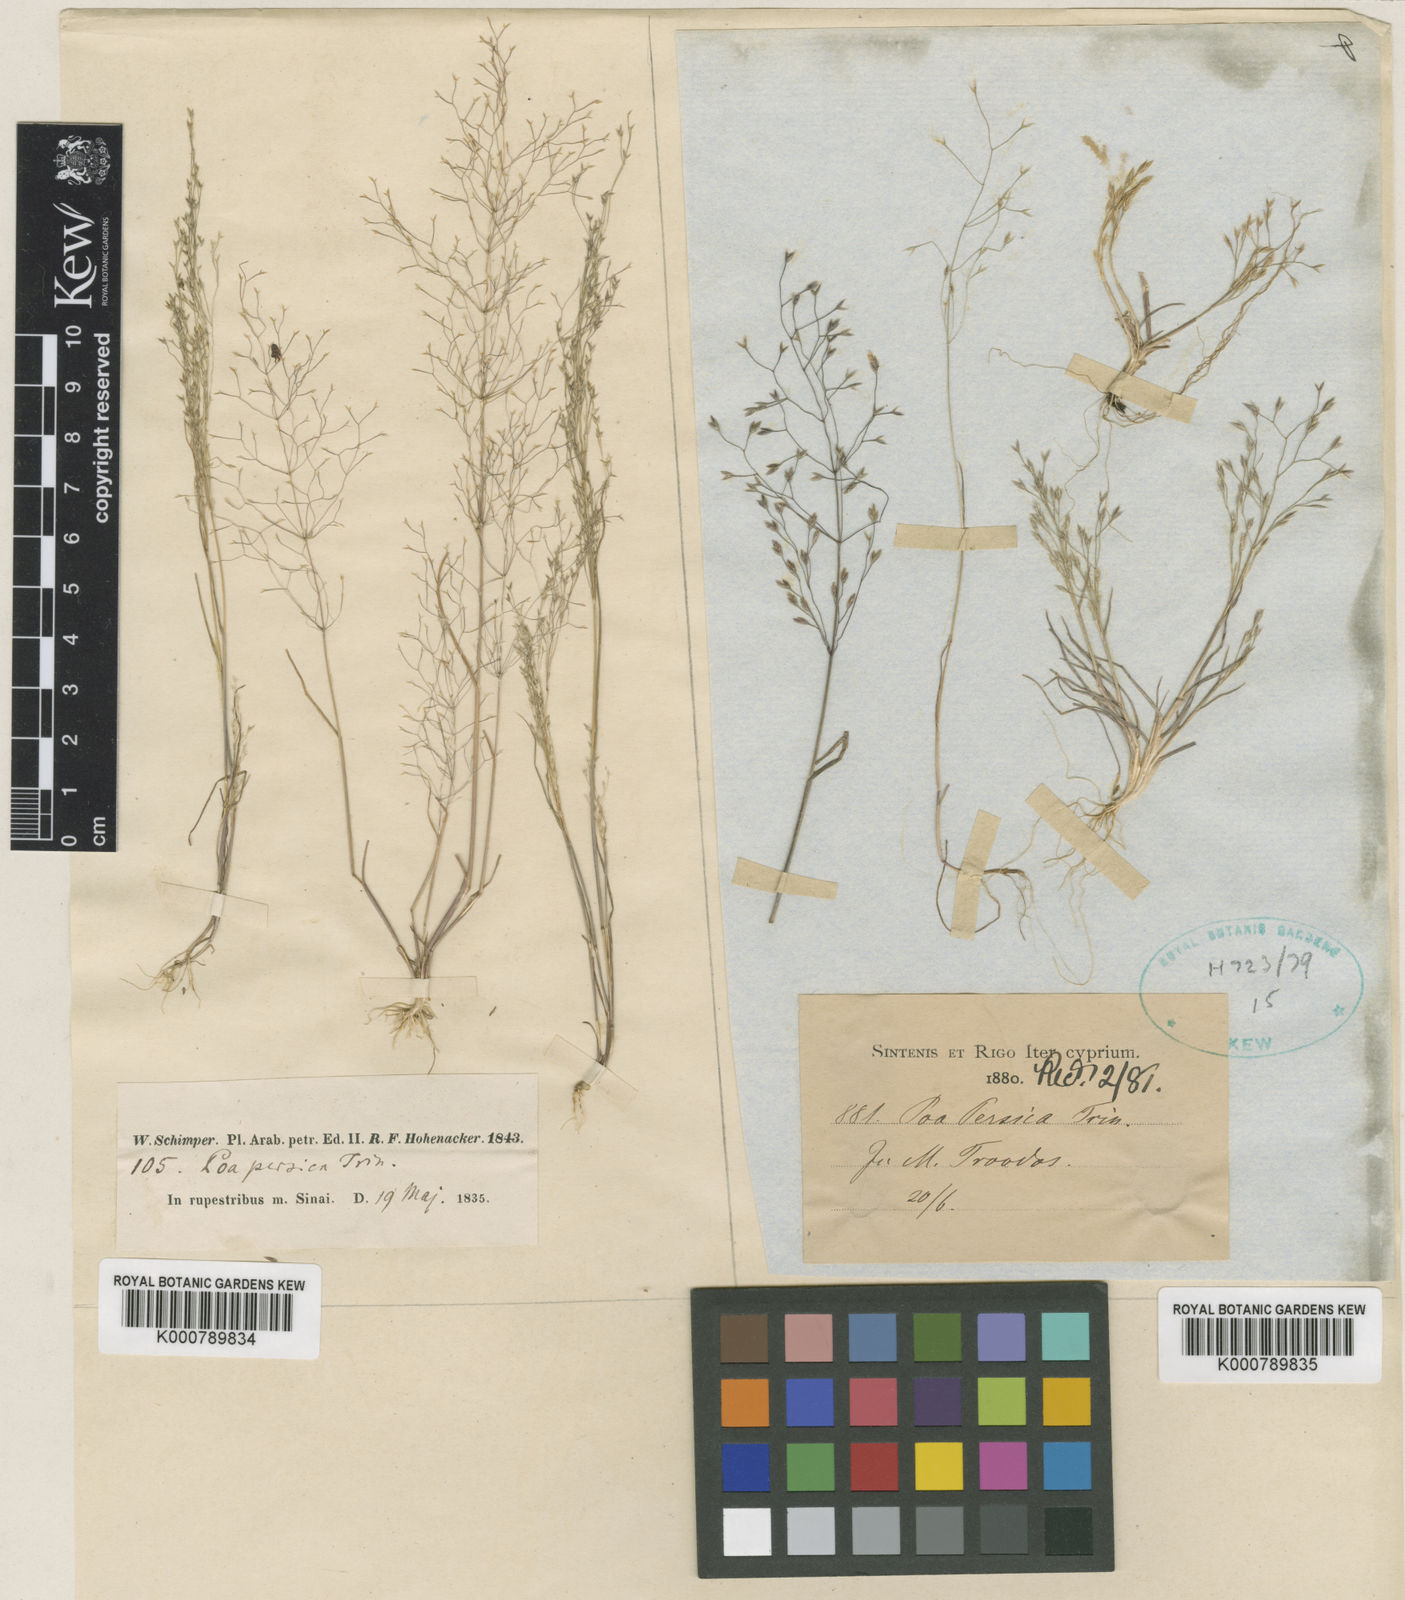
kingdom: Plantae
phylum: Tracheophyta
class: Liliopsida
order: Poales
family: Poaceae
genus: Poa
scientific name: Poa sintenisii
